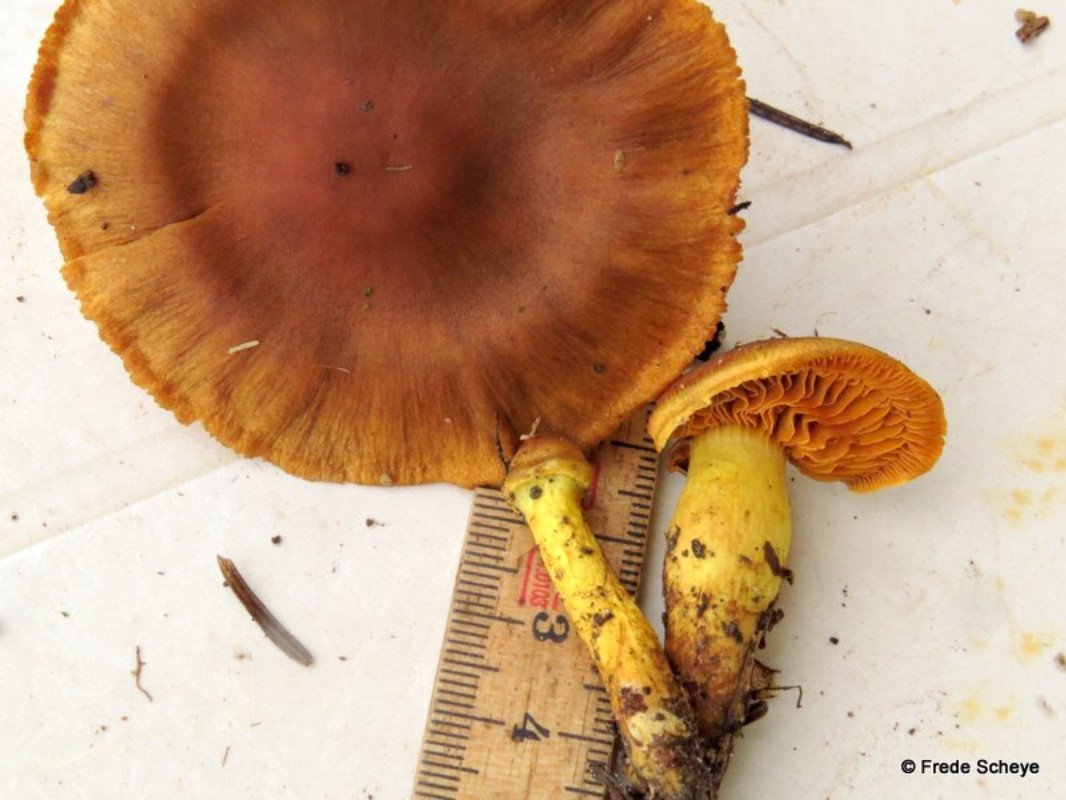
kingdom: Fungi
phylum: Basidiomycota
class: Agaricomycetes
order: Agaricales
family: Cortinariaceae
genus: Cortinarius
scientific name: Cortinarius
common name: gulbladet slørhat
